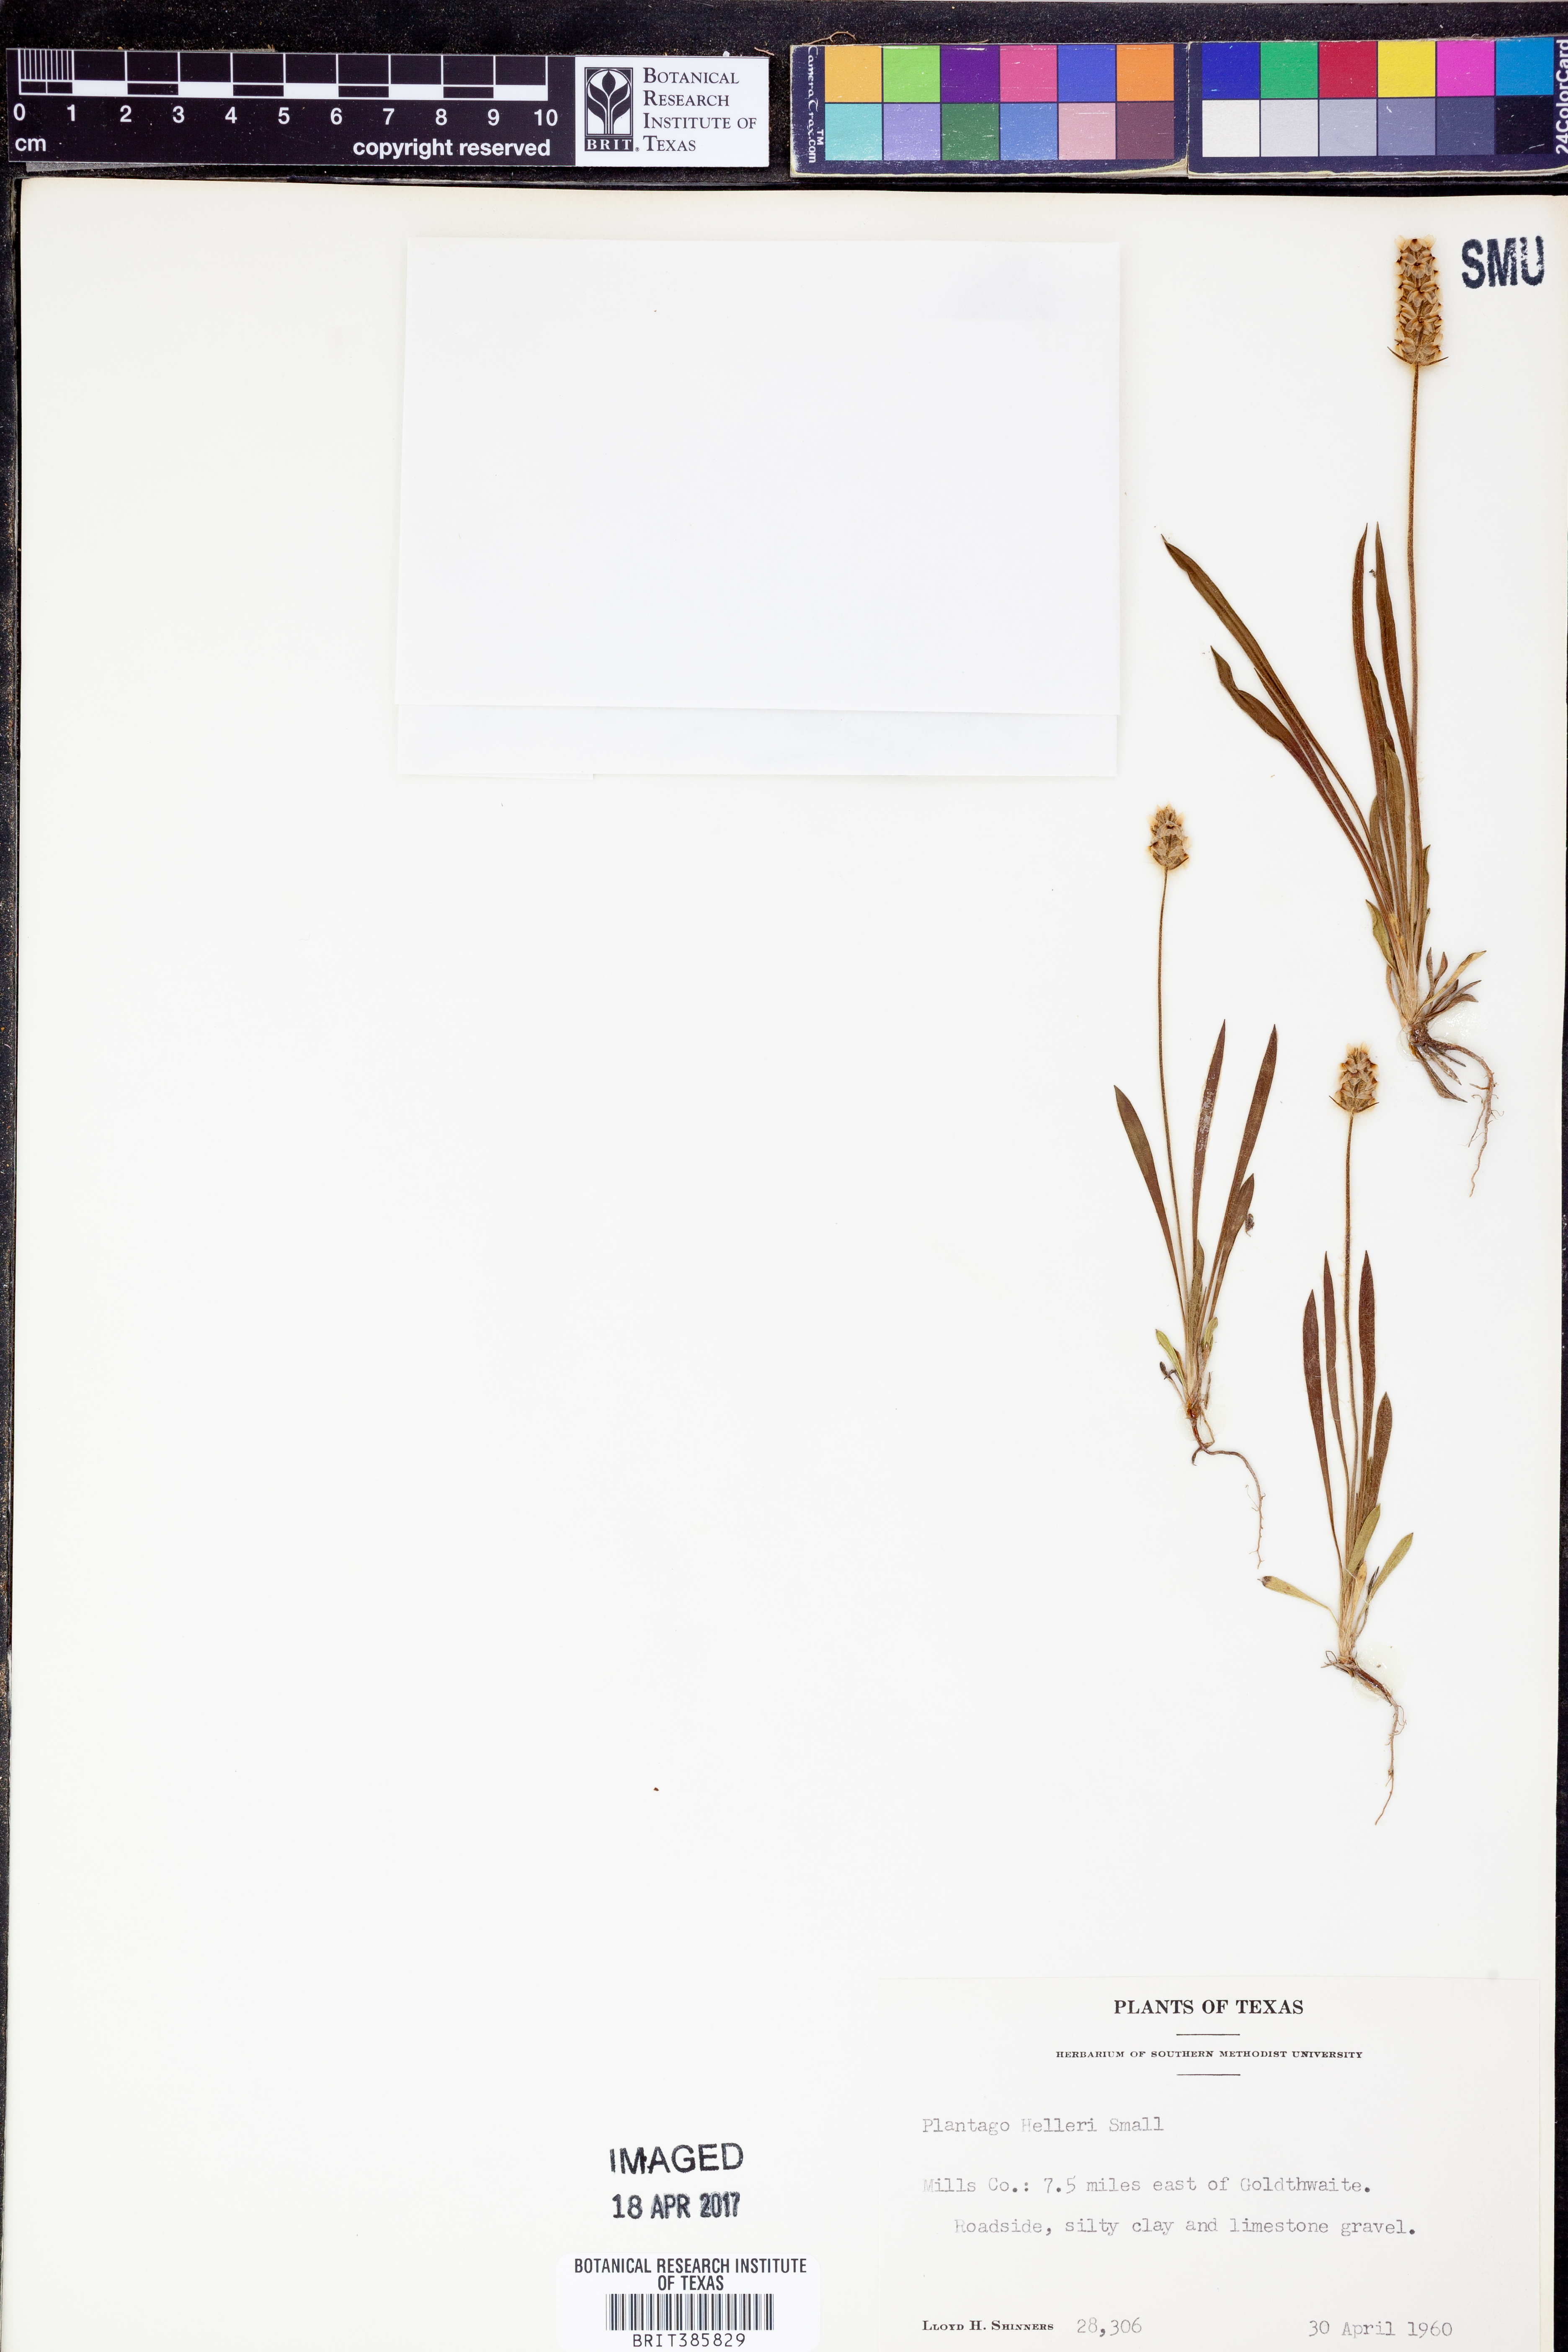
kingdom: Plantae
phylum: Tracheophyta
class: Magnoliopsida
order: Lamiales
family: Plantaginaceae
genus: Plantago
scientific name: Plantago helleri
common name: Heller's plantain
